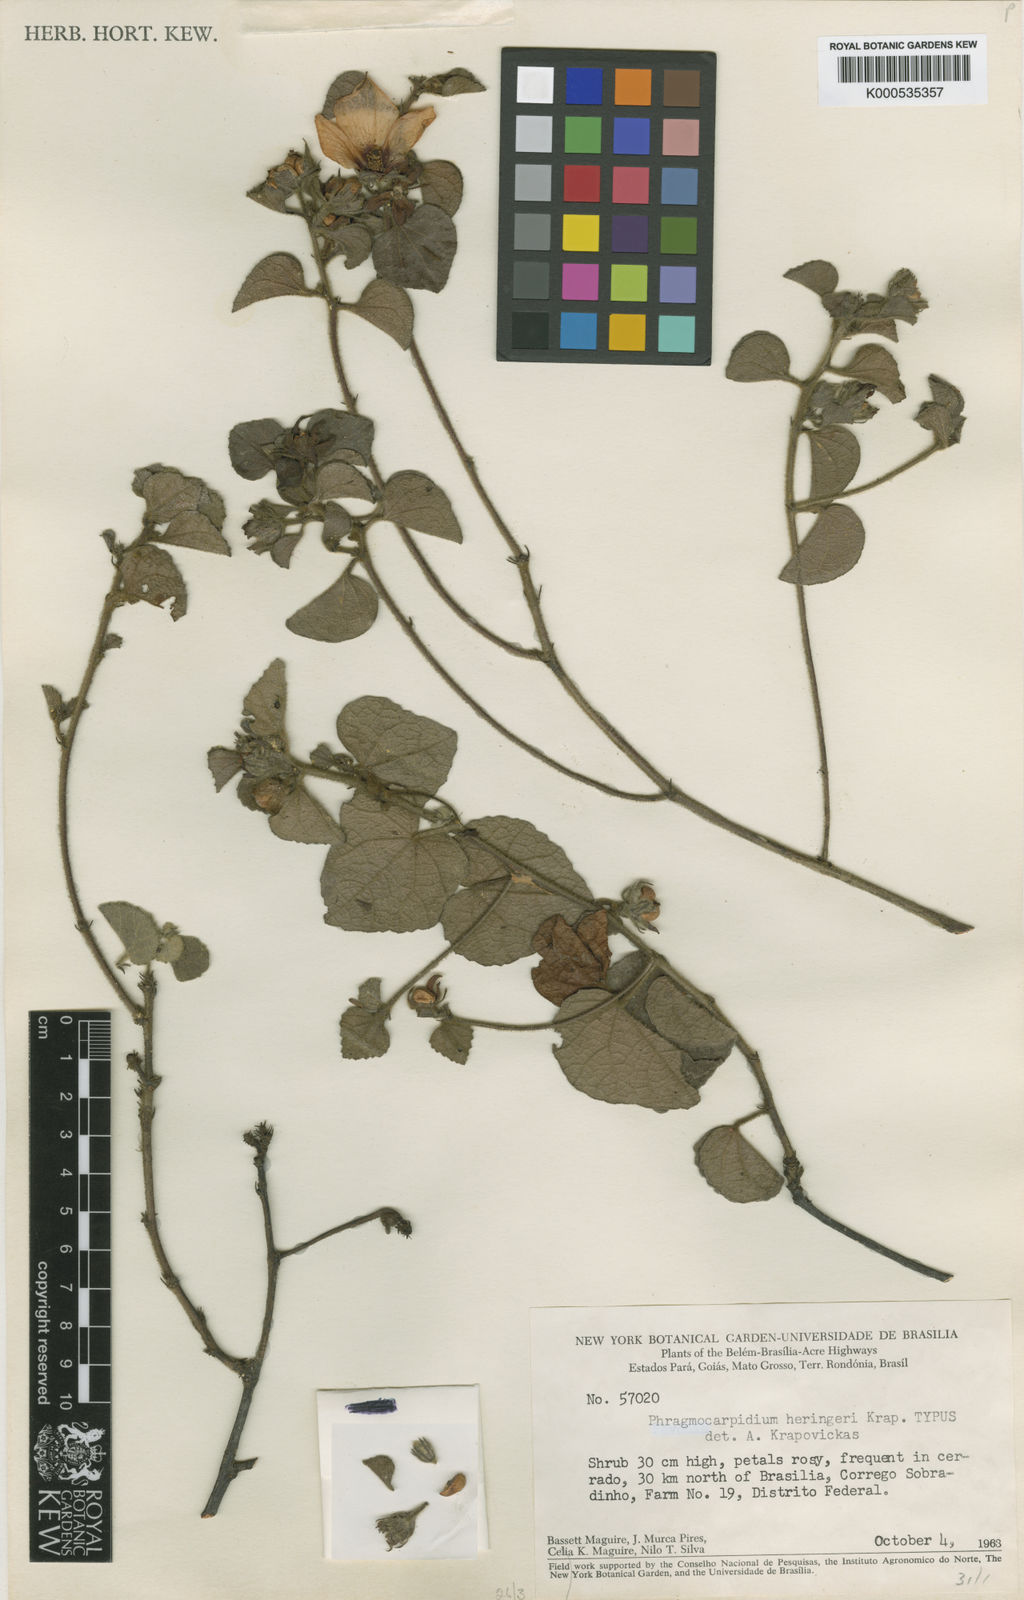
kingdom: Plantae
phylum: Tracheophyta
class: Magnoliopsida
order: Malvales
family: Malvaceae
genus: Phragmocarpidium
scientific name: Phragmocarpidium heringeri
